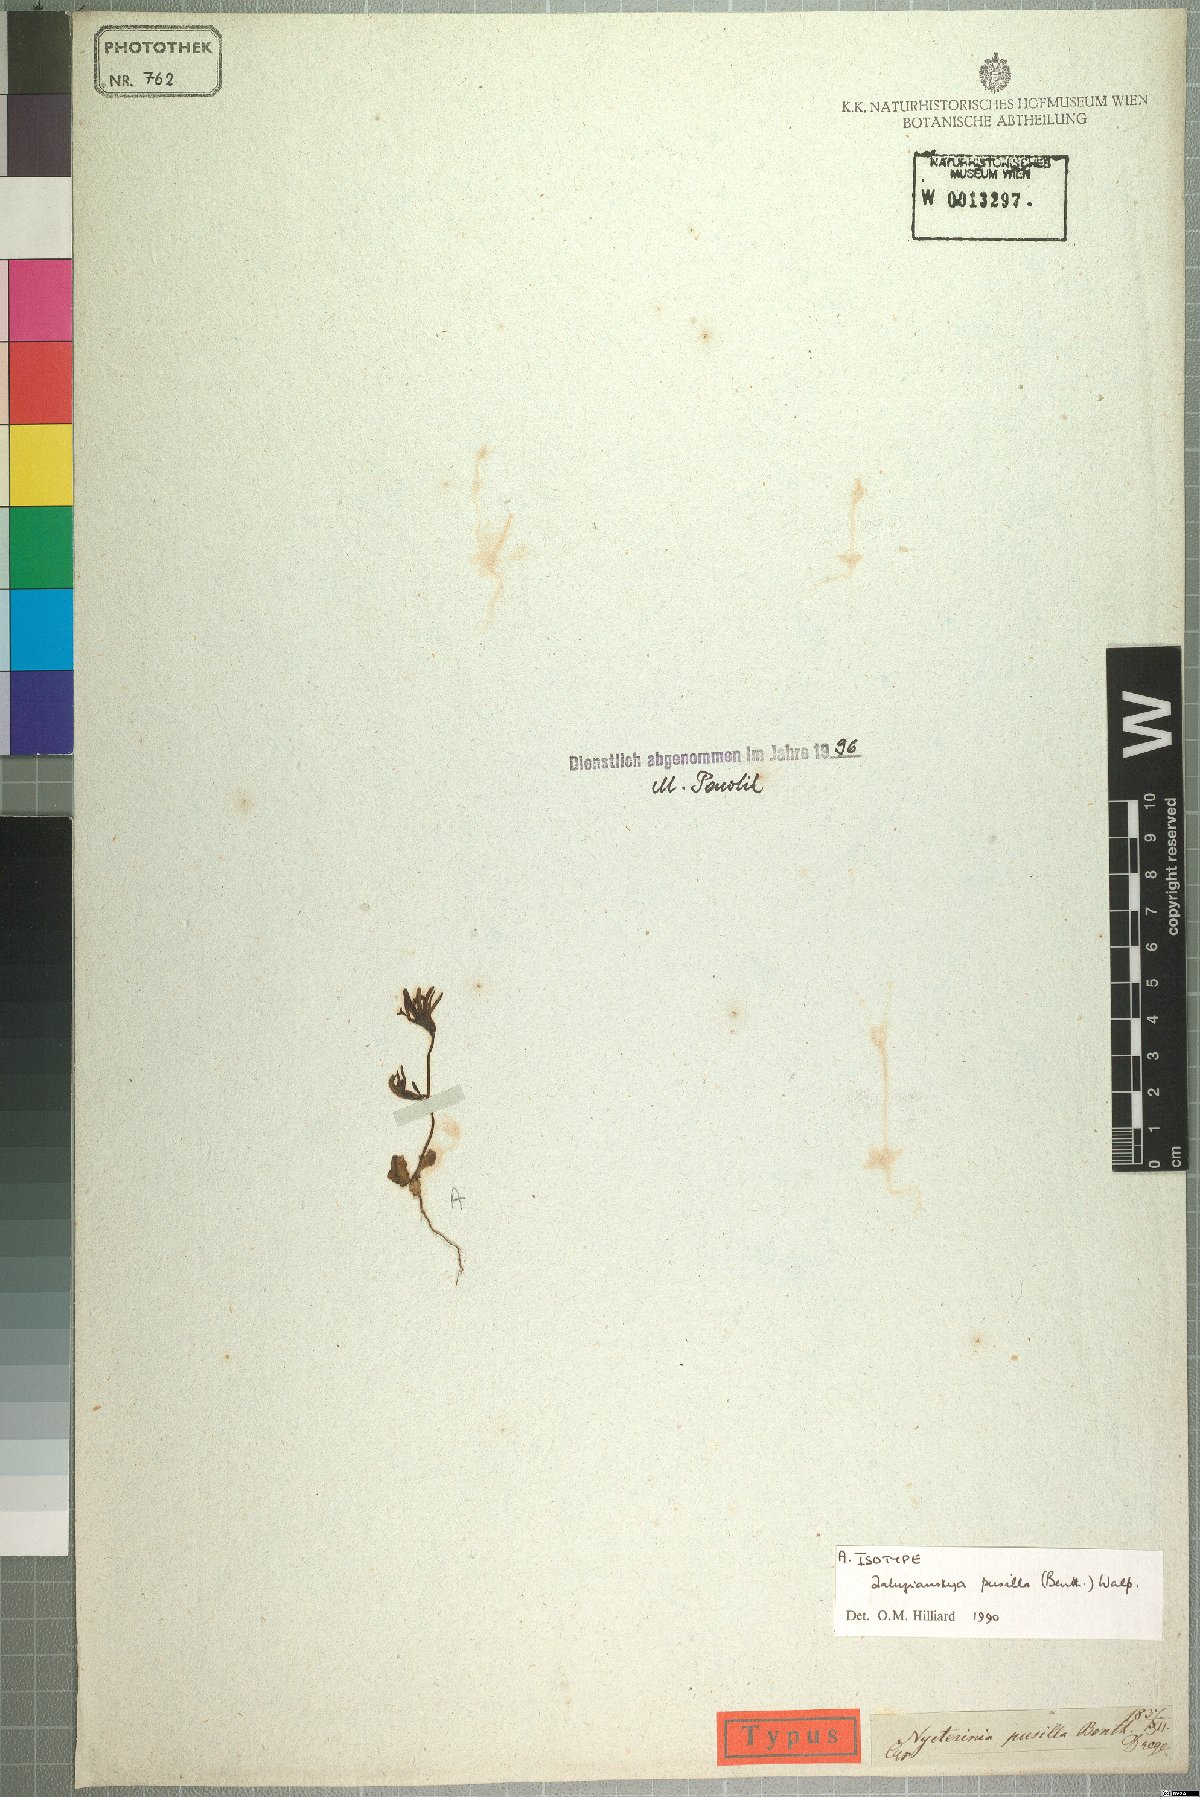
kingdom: Plantae
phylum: Tracheophyta
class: Magnoliopsida
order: Lamiales
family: Scrophulariaceae
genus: Zaluzianskya
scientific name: Zaluzianskya pusilla
